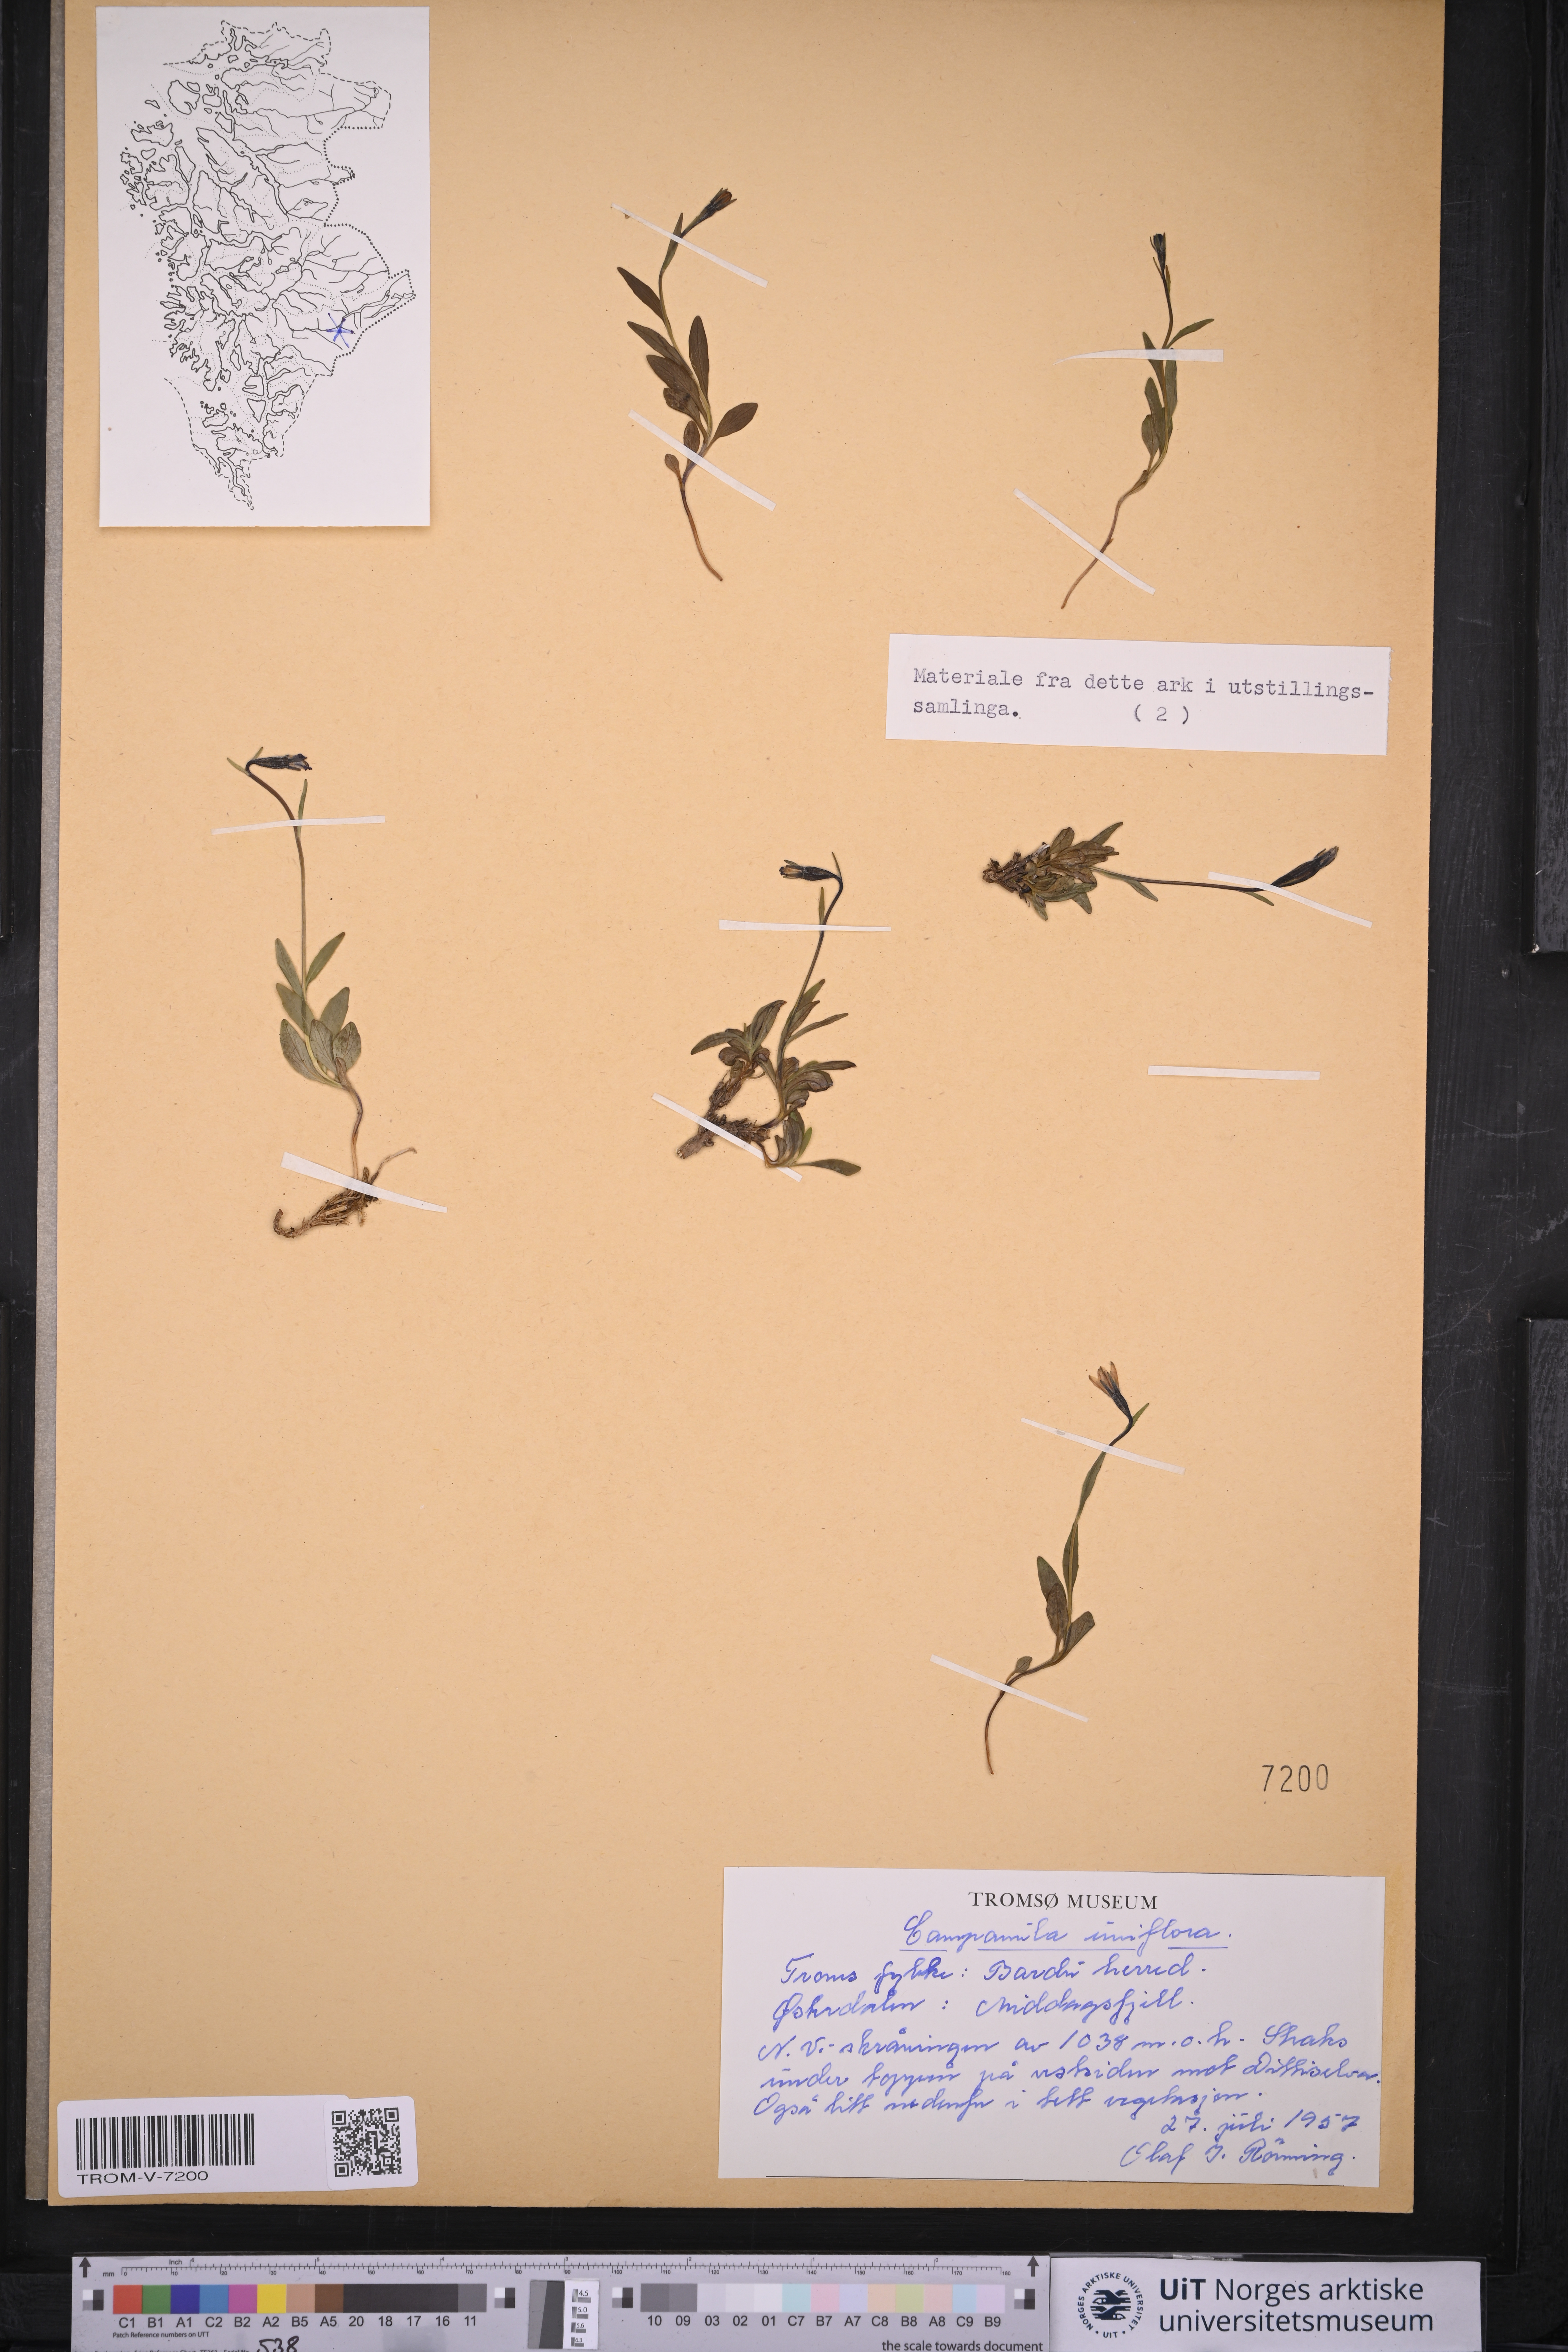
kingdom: Plantae
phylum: Tracheophyta
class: Magnoliopsida
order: Asterales
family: Campanulaceae
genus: Melanocalyx
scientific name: Melanocalyx uniflora
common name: Alpine harebell
